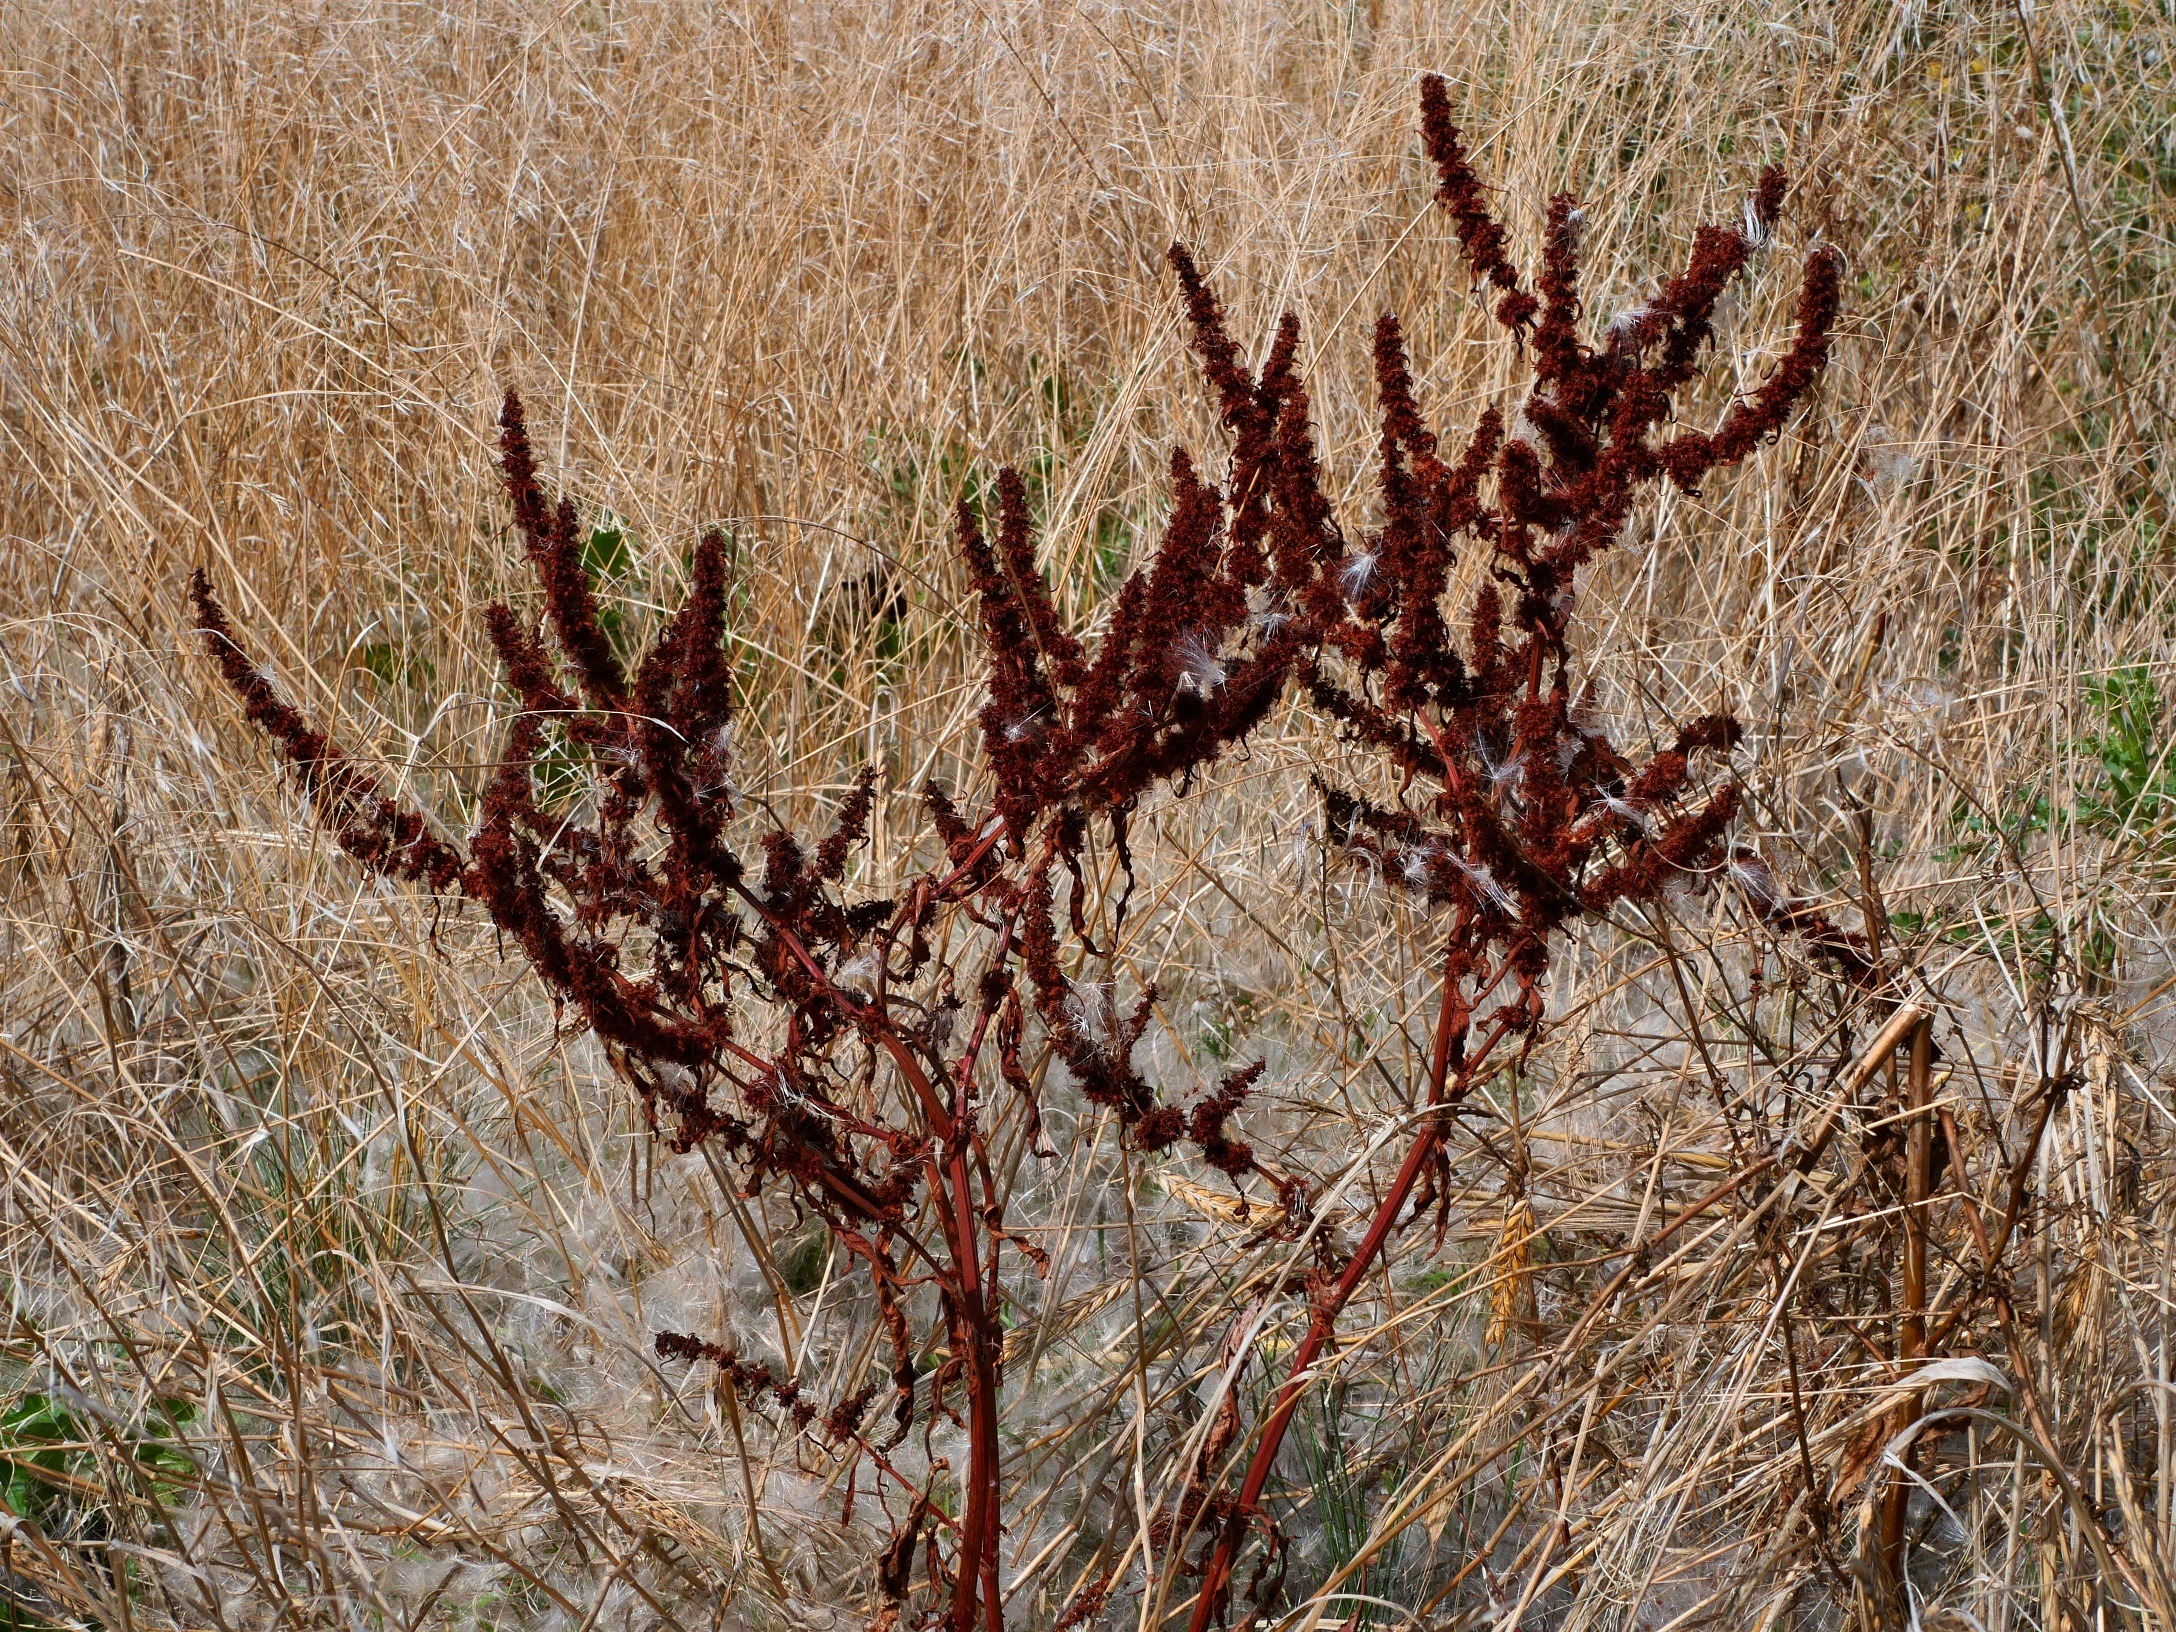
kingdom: Plantae
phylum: Tracheophyta
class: Magnoliopsida
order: Caryophyllales
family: Polygonaceae
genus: Rumex
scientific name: Rumex maritimus
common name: Strand-skræppe
